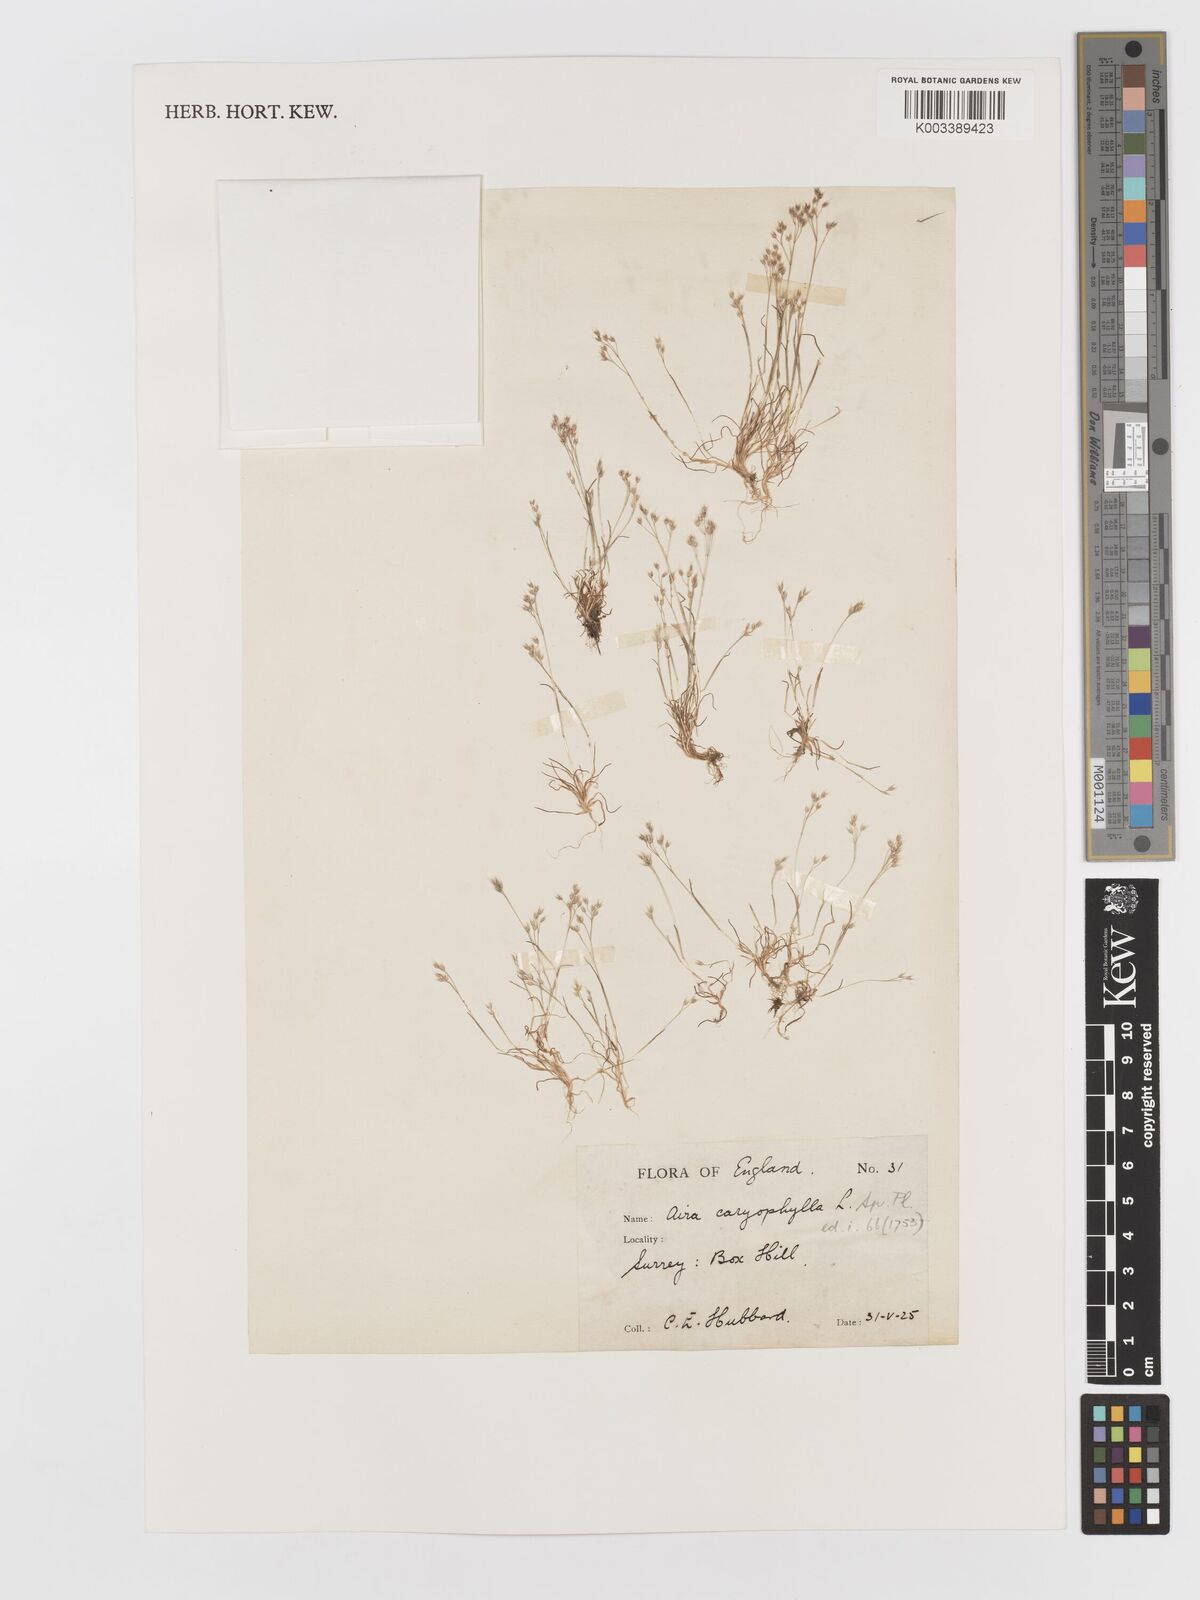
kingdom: Plantae
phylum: Tracheophyta
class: Liliopsida
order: Poales
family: Poaceae
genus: Aira
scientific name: Aira caryophyllea
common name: Silver hairgrass
